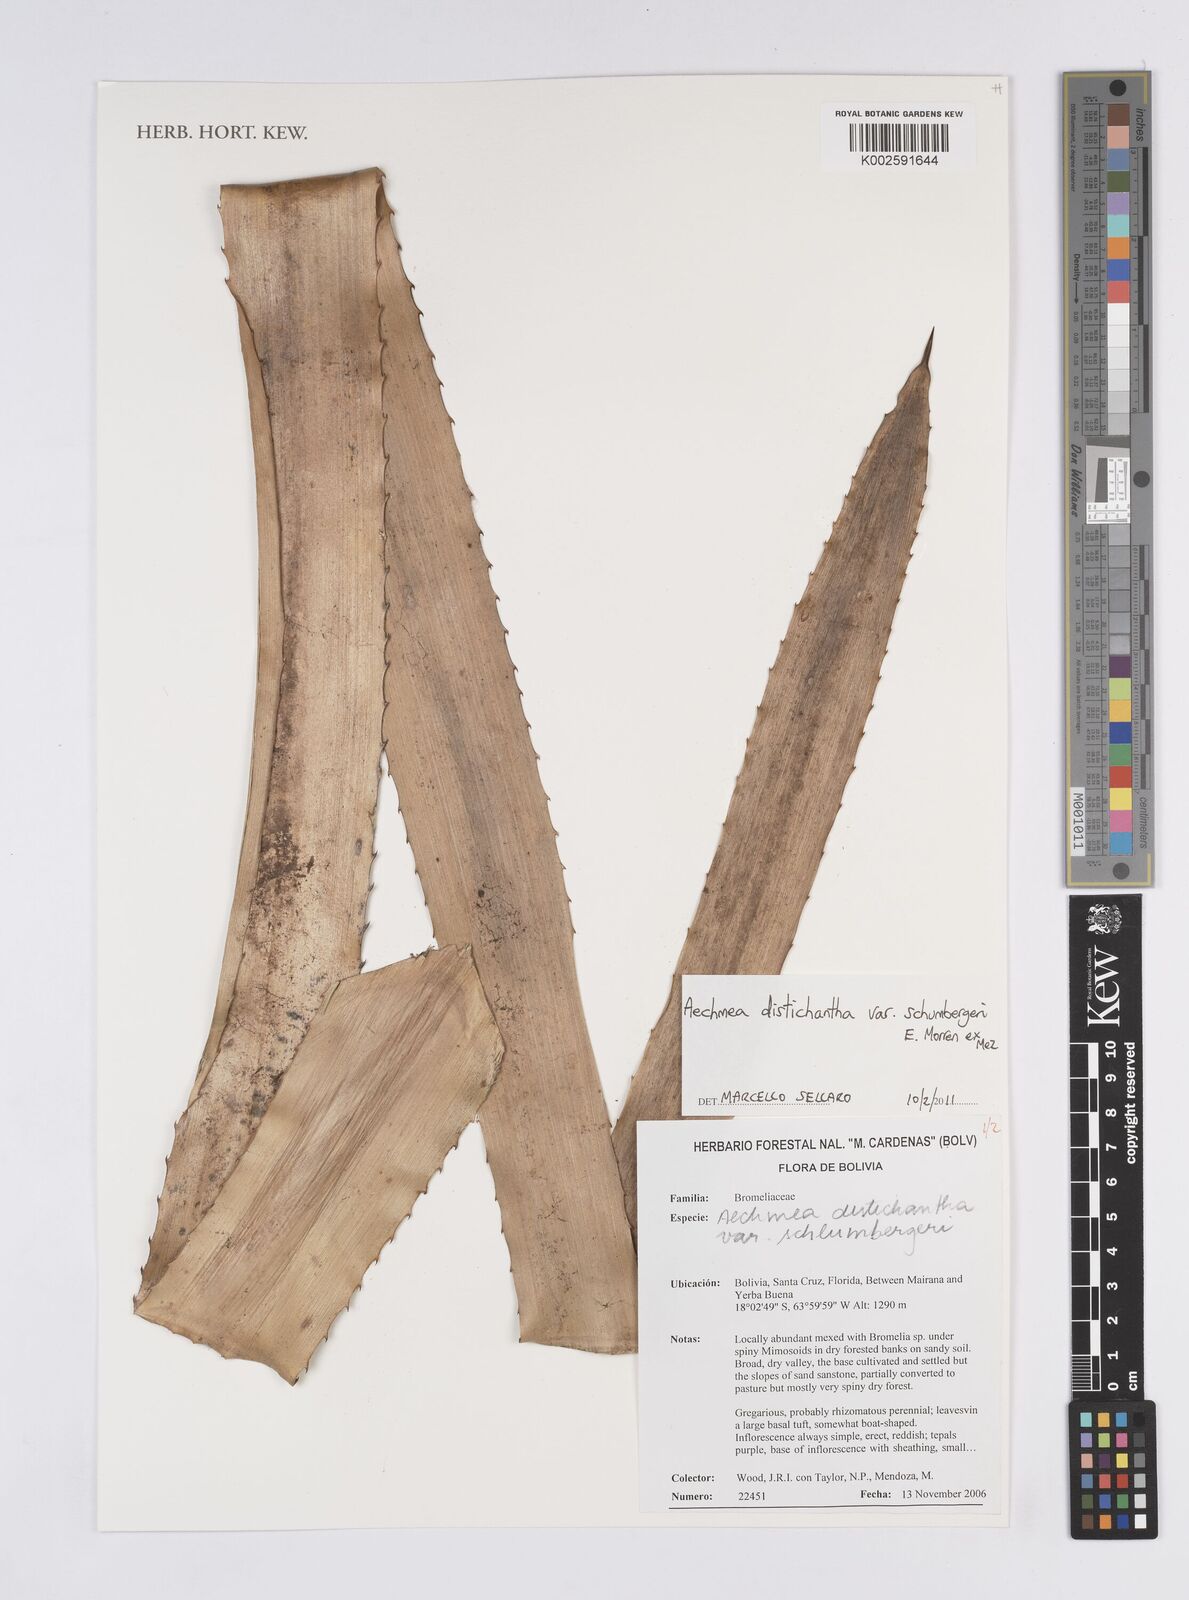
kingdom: Plantae
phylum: Tracheophyta
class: Liliopsida
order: Poales
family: Bromeliaceae
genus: Aechmea
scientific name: Aechmea distichantha
